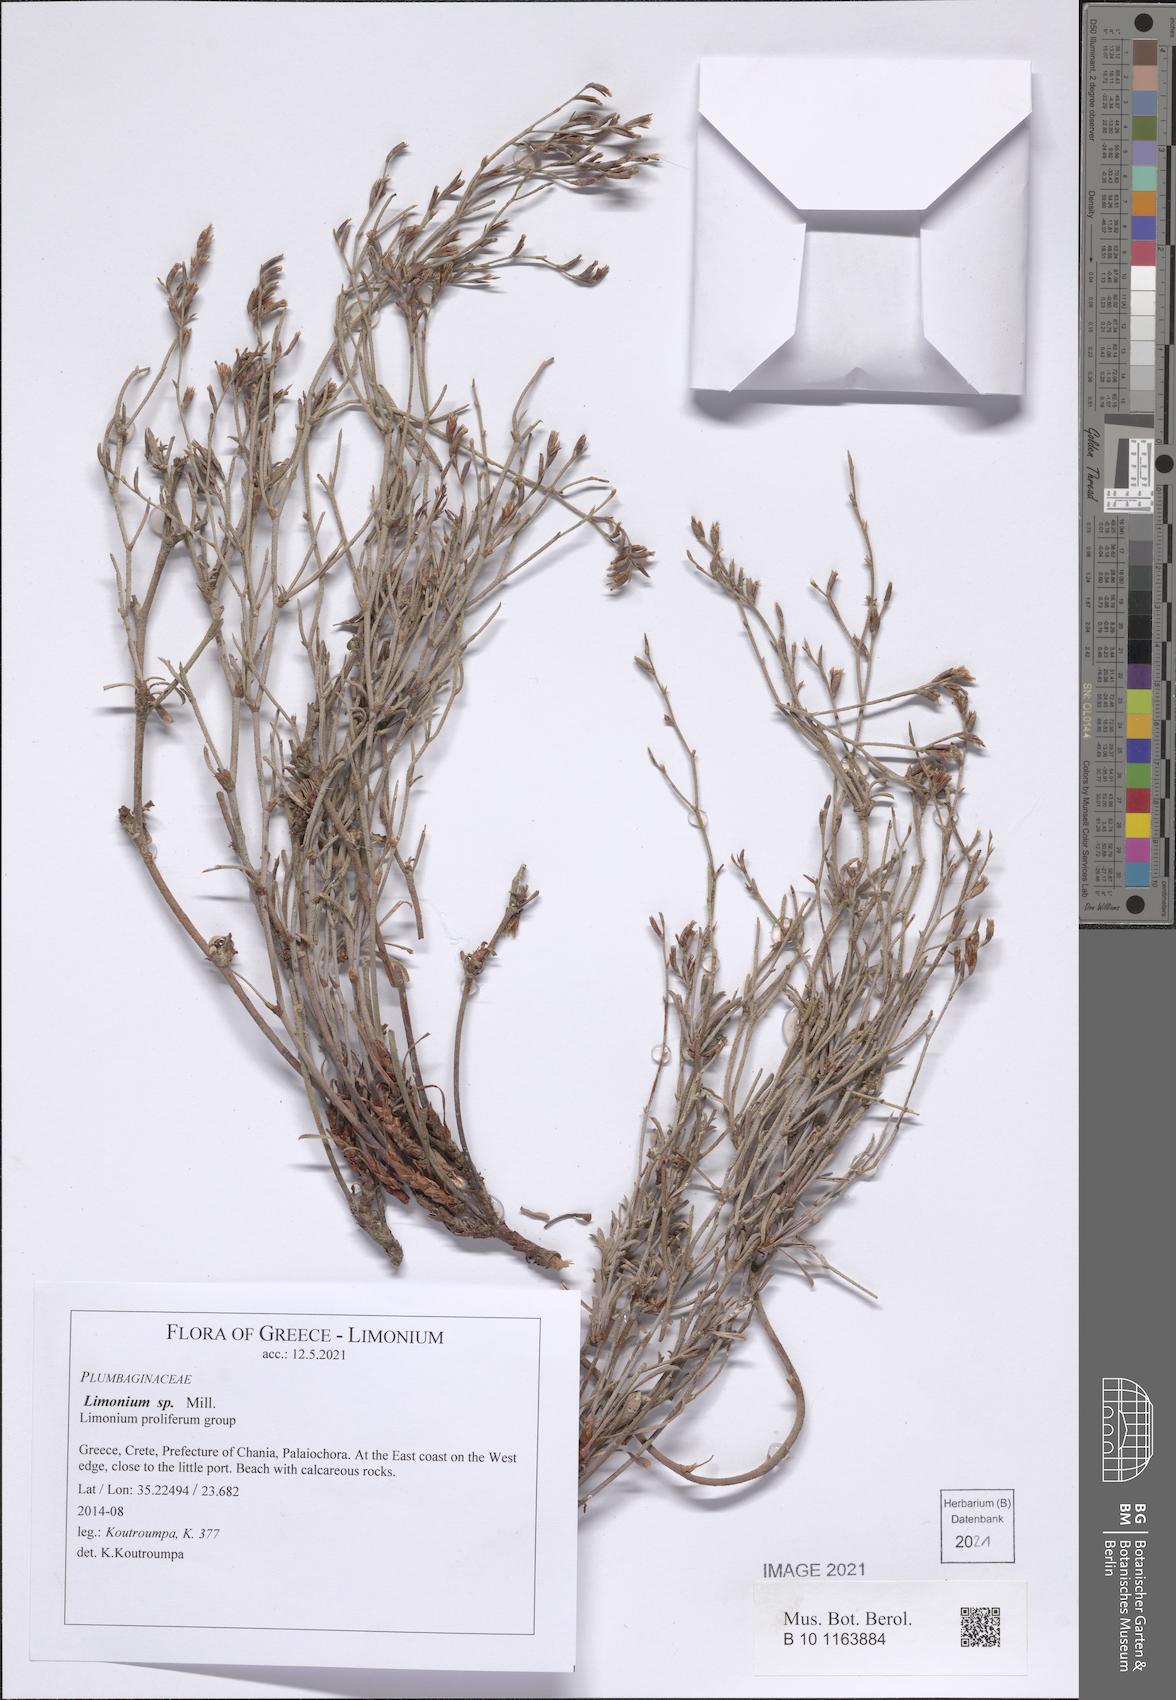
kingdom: Plantae
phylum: Tracheophyta
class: Magnoliopsida
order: Caryophyllales
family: Plumbaginaceae
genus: Limonium
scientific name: Limonium
